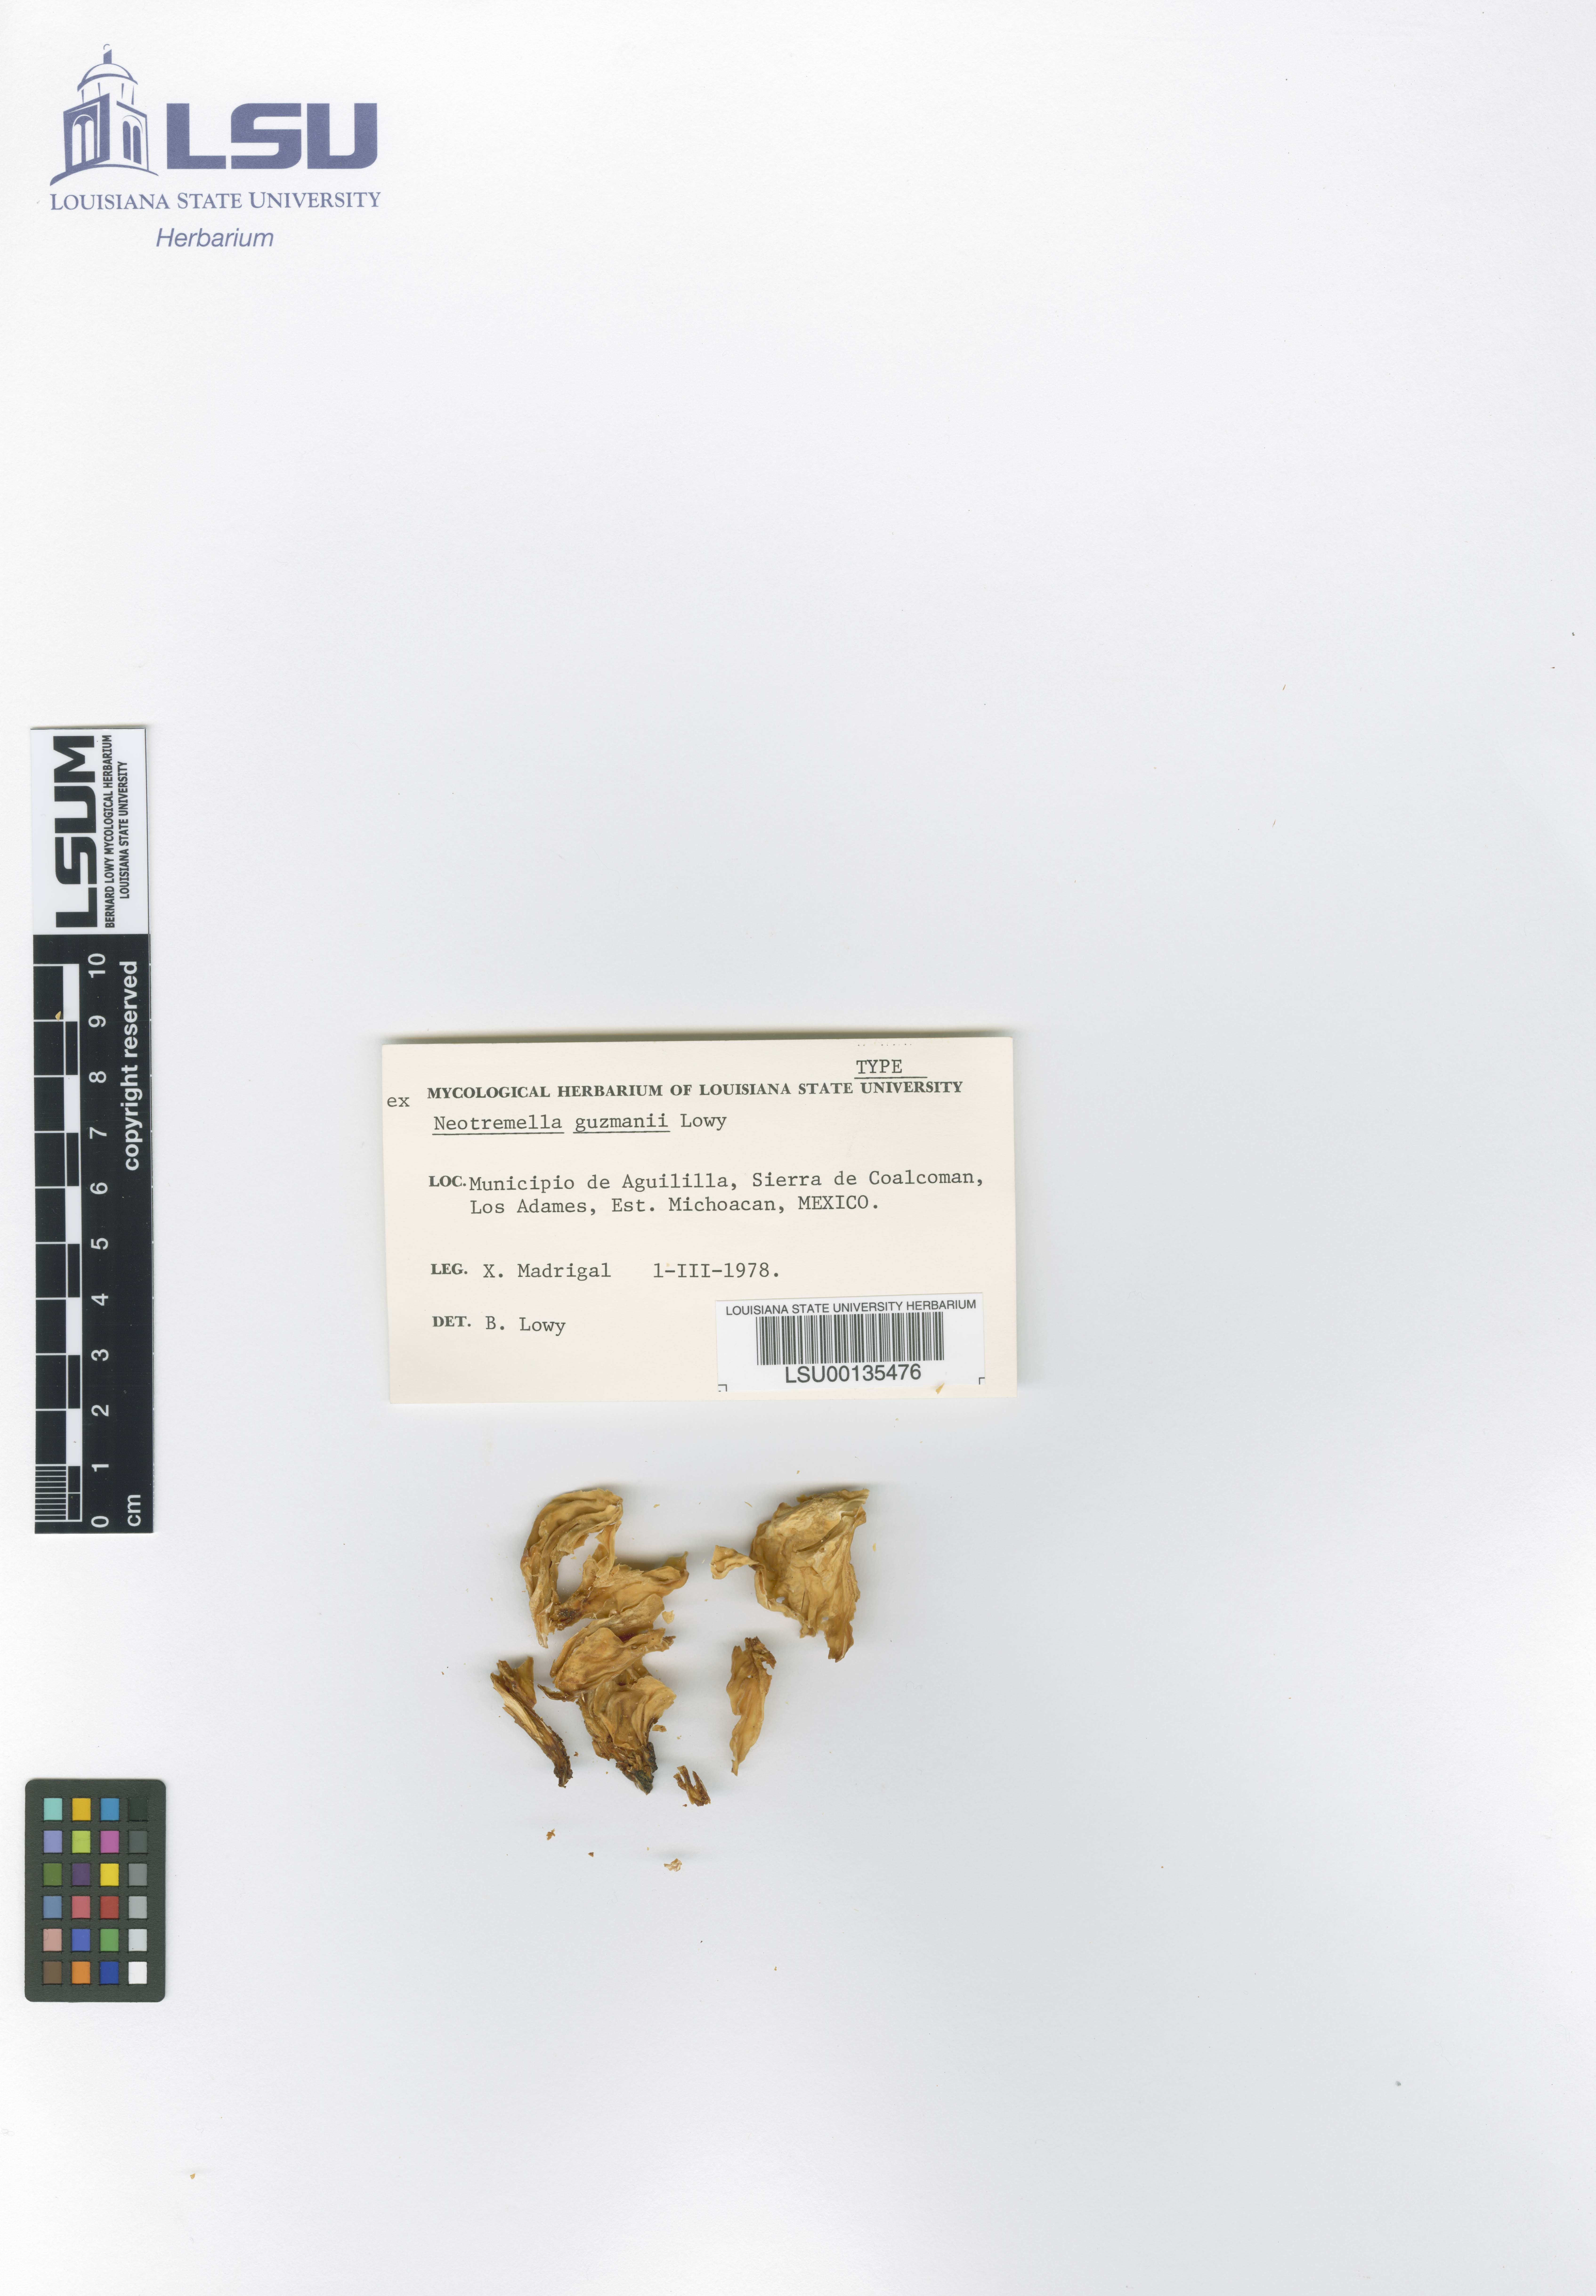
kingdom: Fungi
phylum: Basidiomycota
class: Tremellomycetes
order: Tremellales
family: Tremellaceae
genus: Neotremella
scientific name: Neotremella guzmanii
